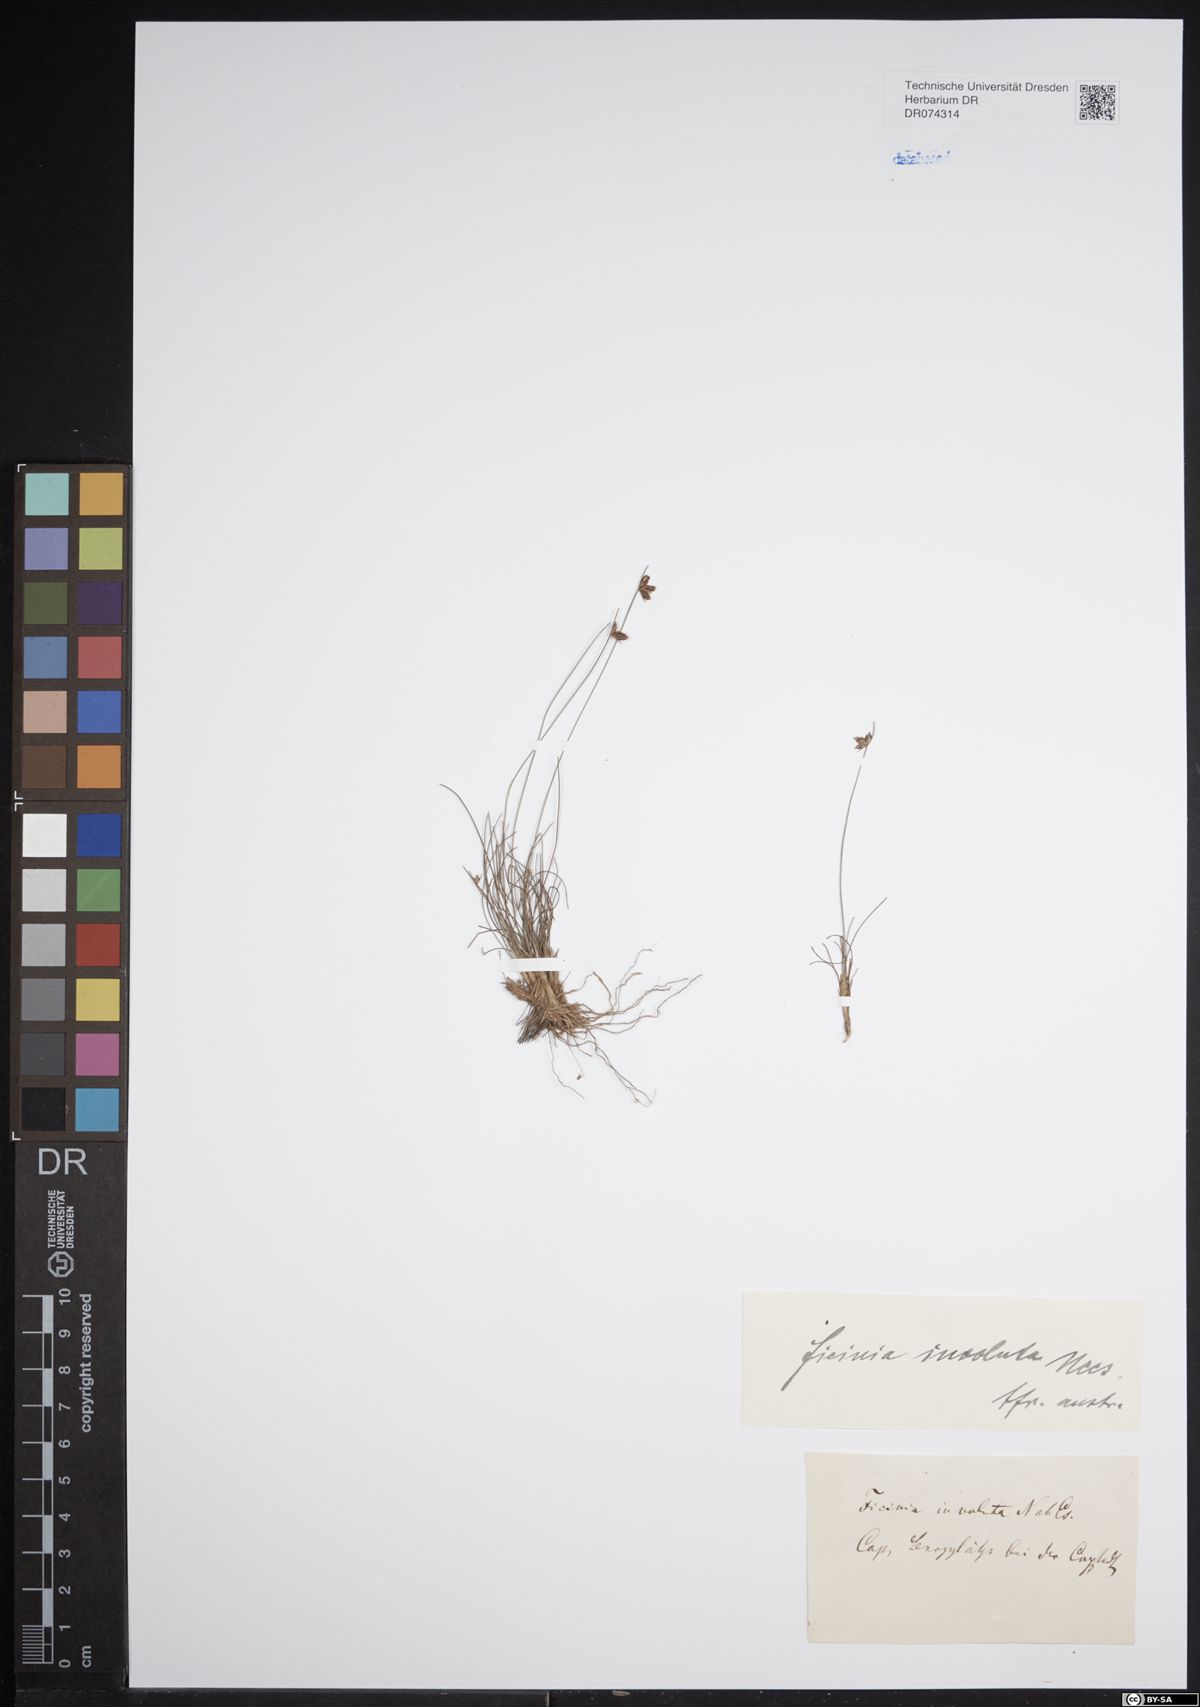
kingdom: Plantae
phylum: Tracheophyta
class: Liliopsida
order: Poales
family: Cyperaceae
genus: Ficinia
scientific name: Ficinia involuta
